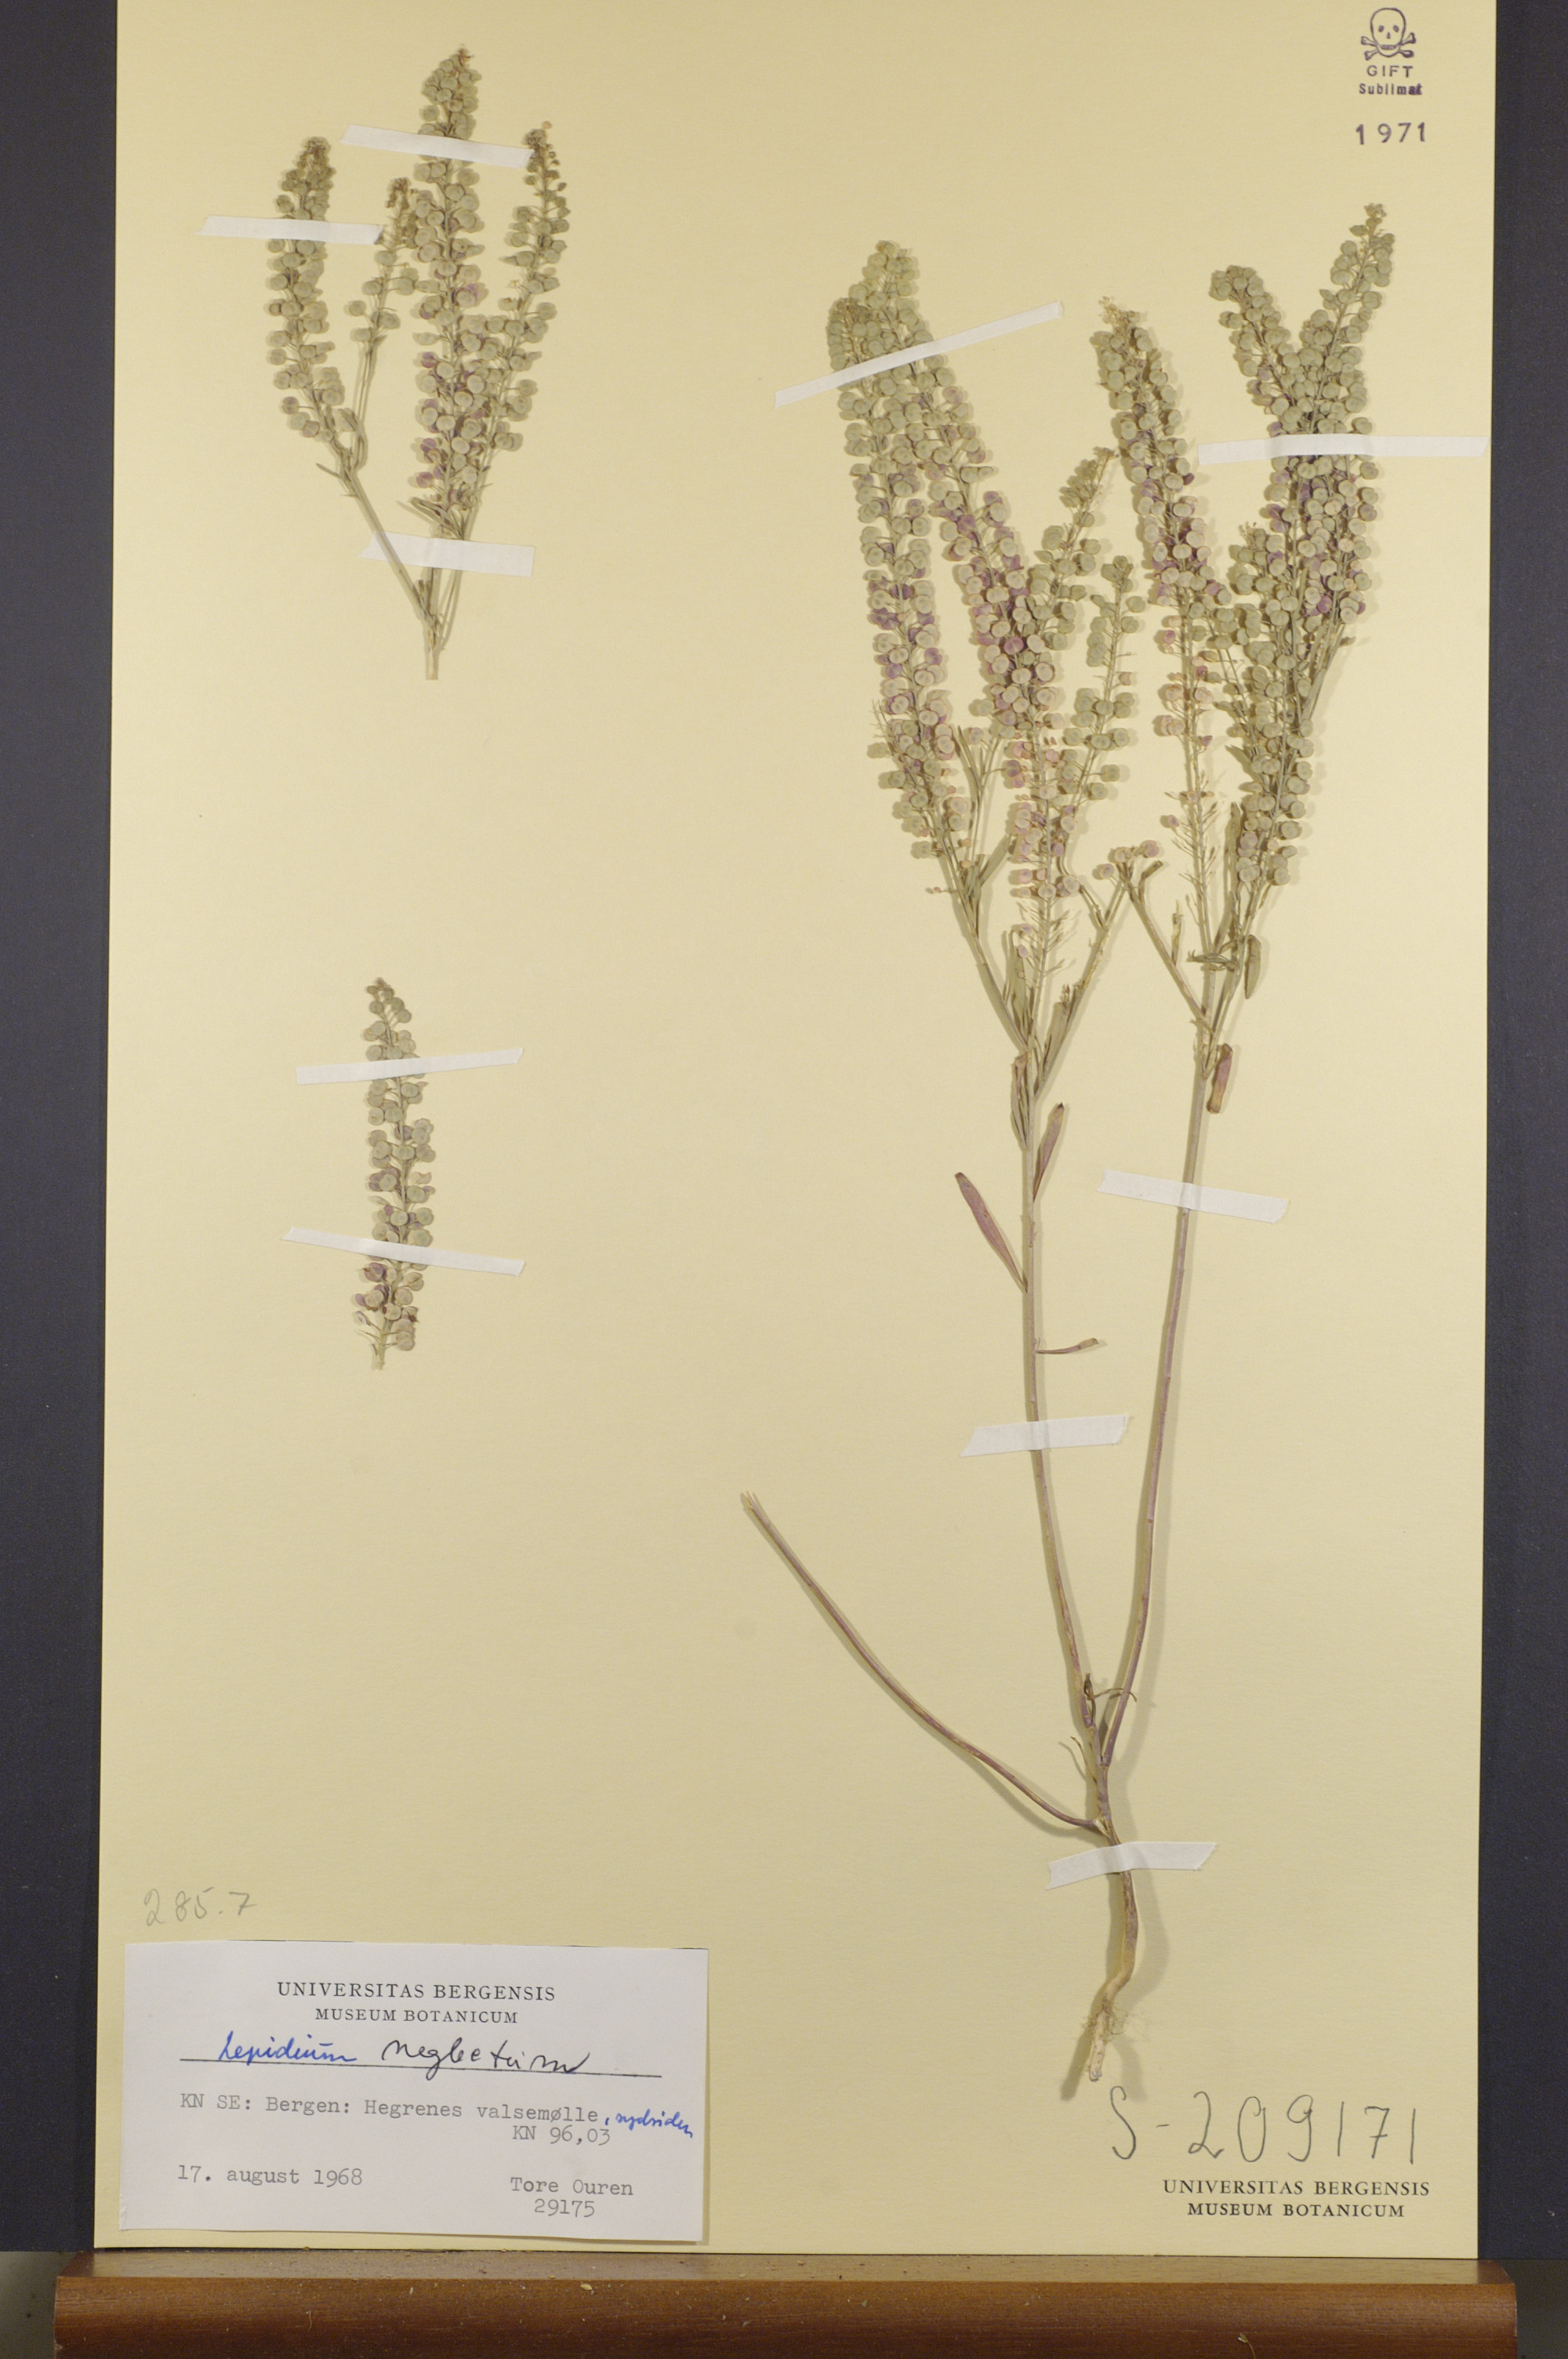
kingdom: Plantae
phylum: Tracheophyta
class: Magnoliopsida
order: Brassicales
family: Brassicaceae
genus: Lepidium
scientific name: Lepidium densiflorum
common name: Miner's pepperwort
